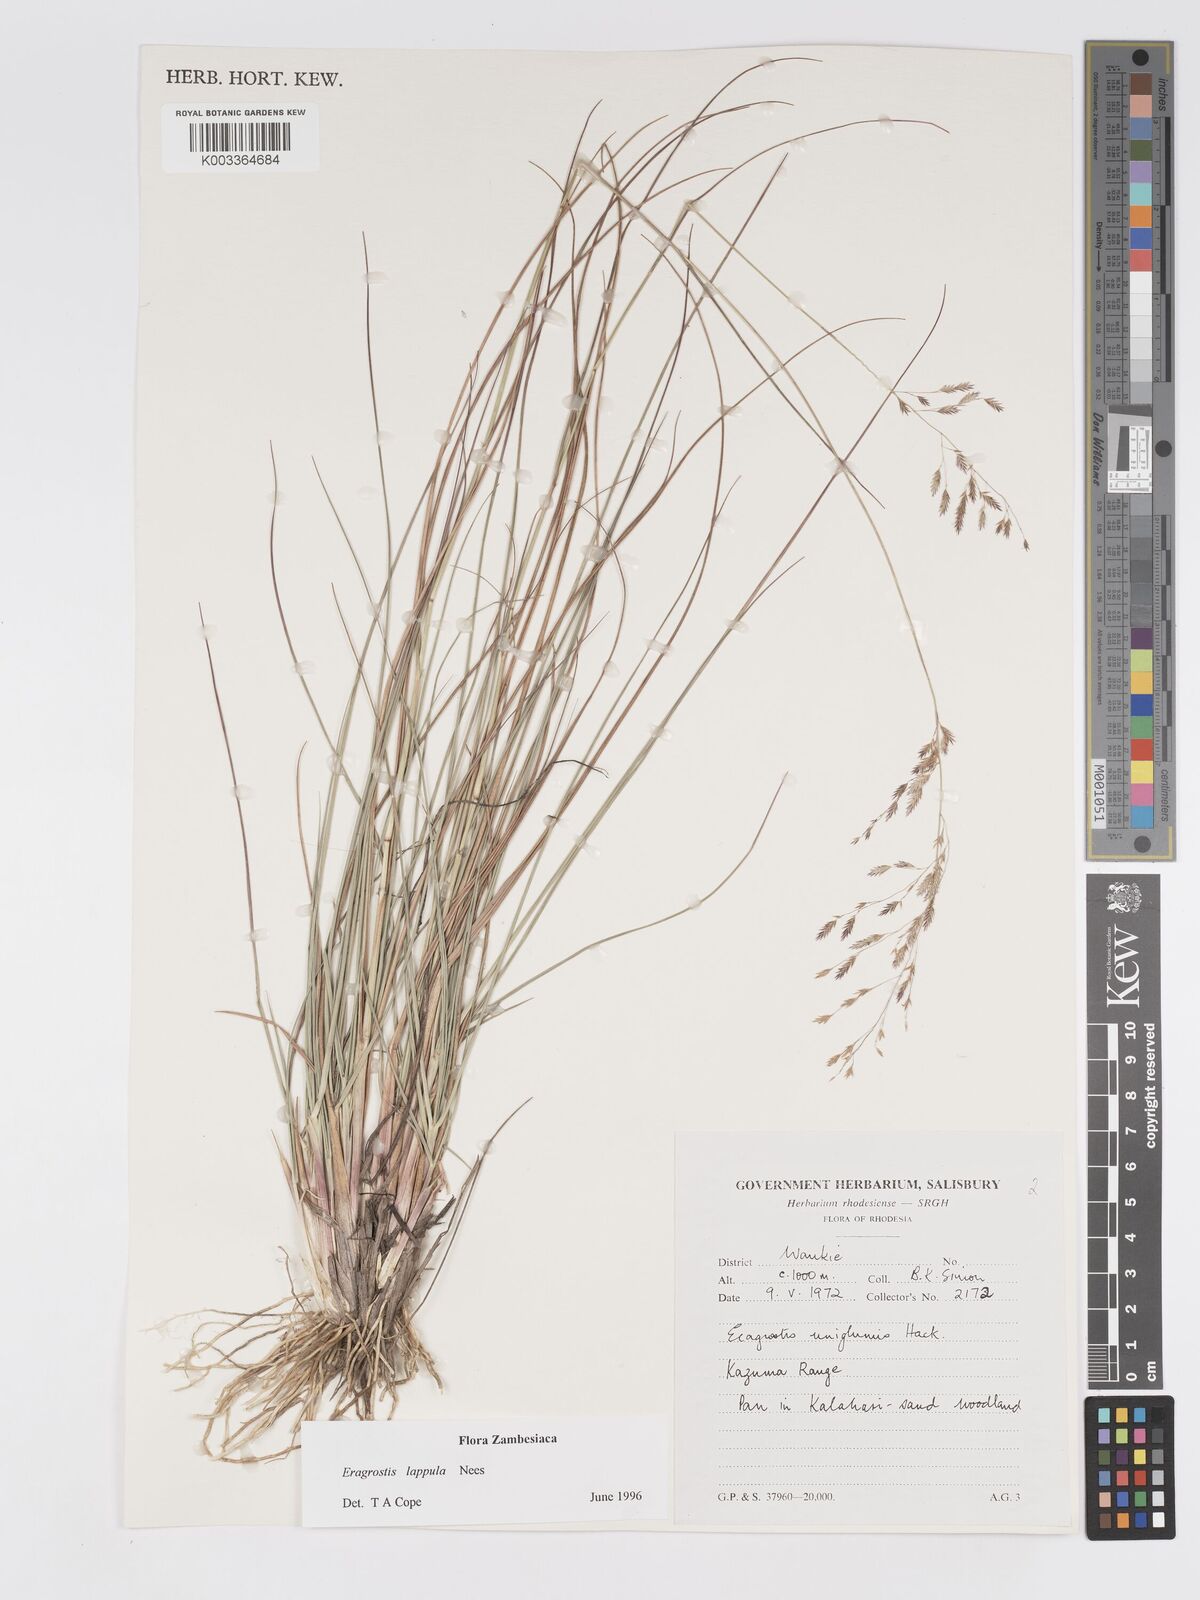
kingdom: Plantae
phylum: Tracheophyta
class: Liliopsida
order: Poales
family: Poaceae
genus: Eragrostis
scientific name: Eragrostis lappula
